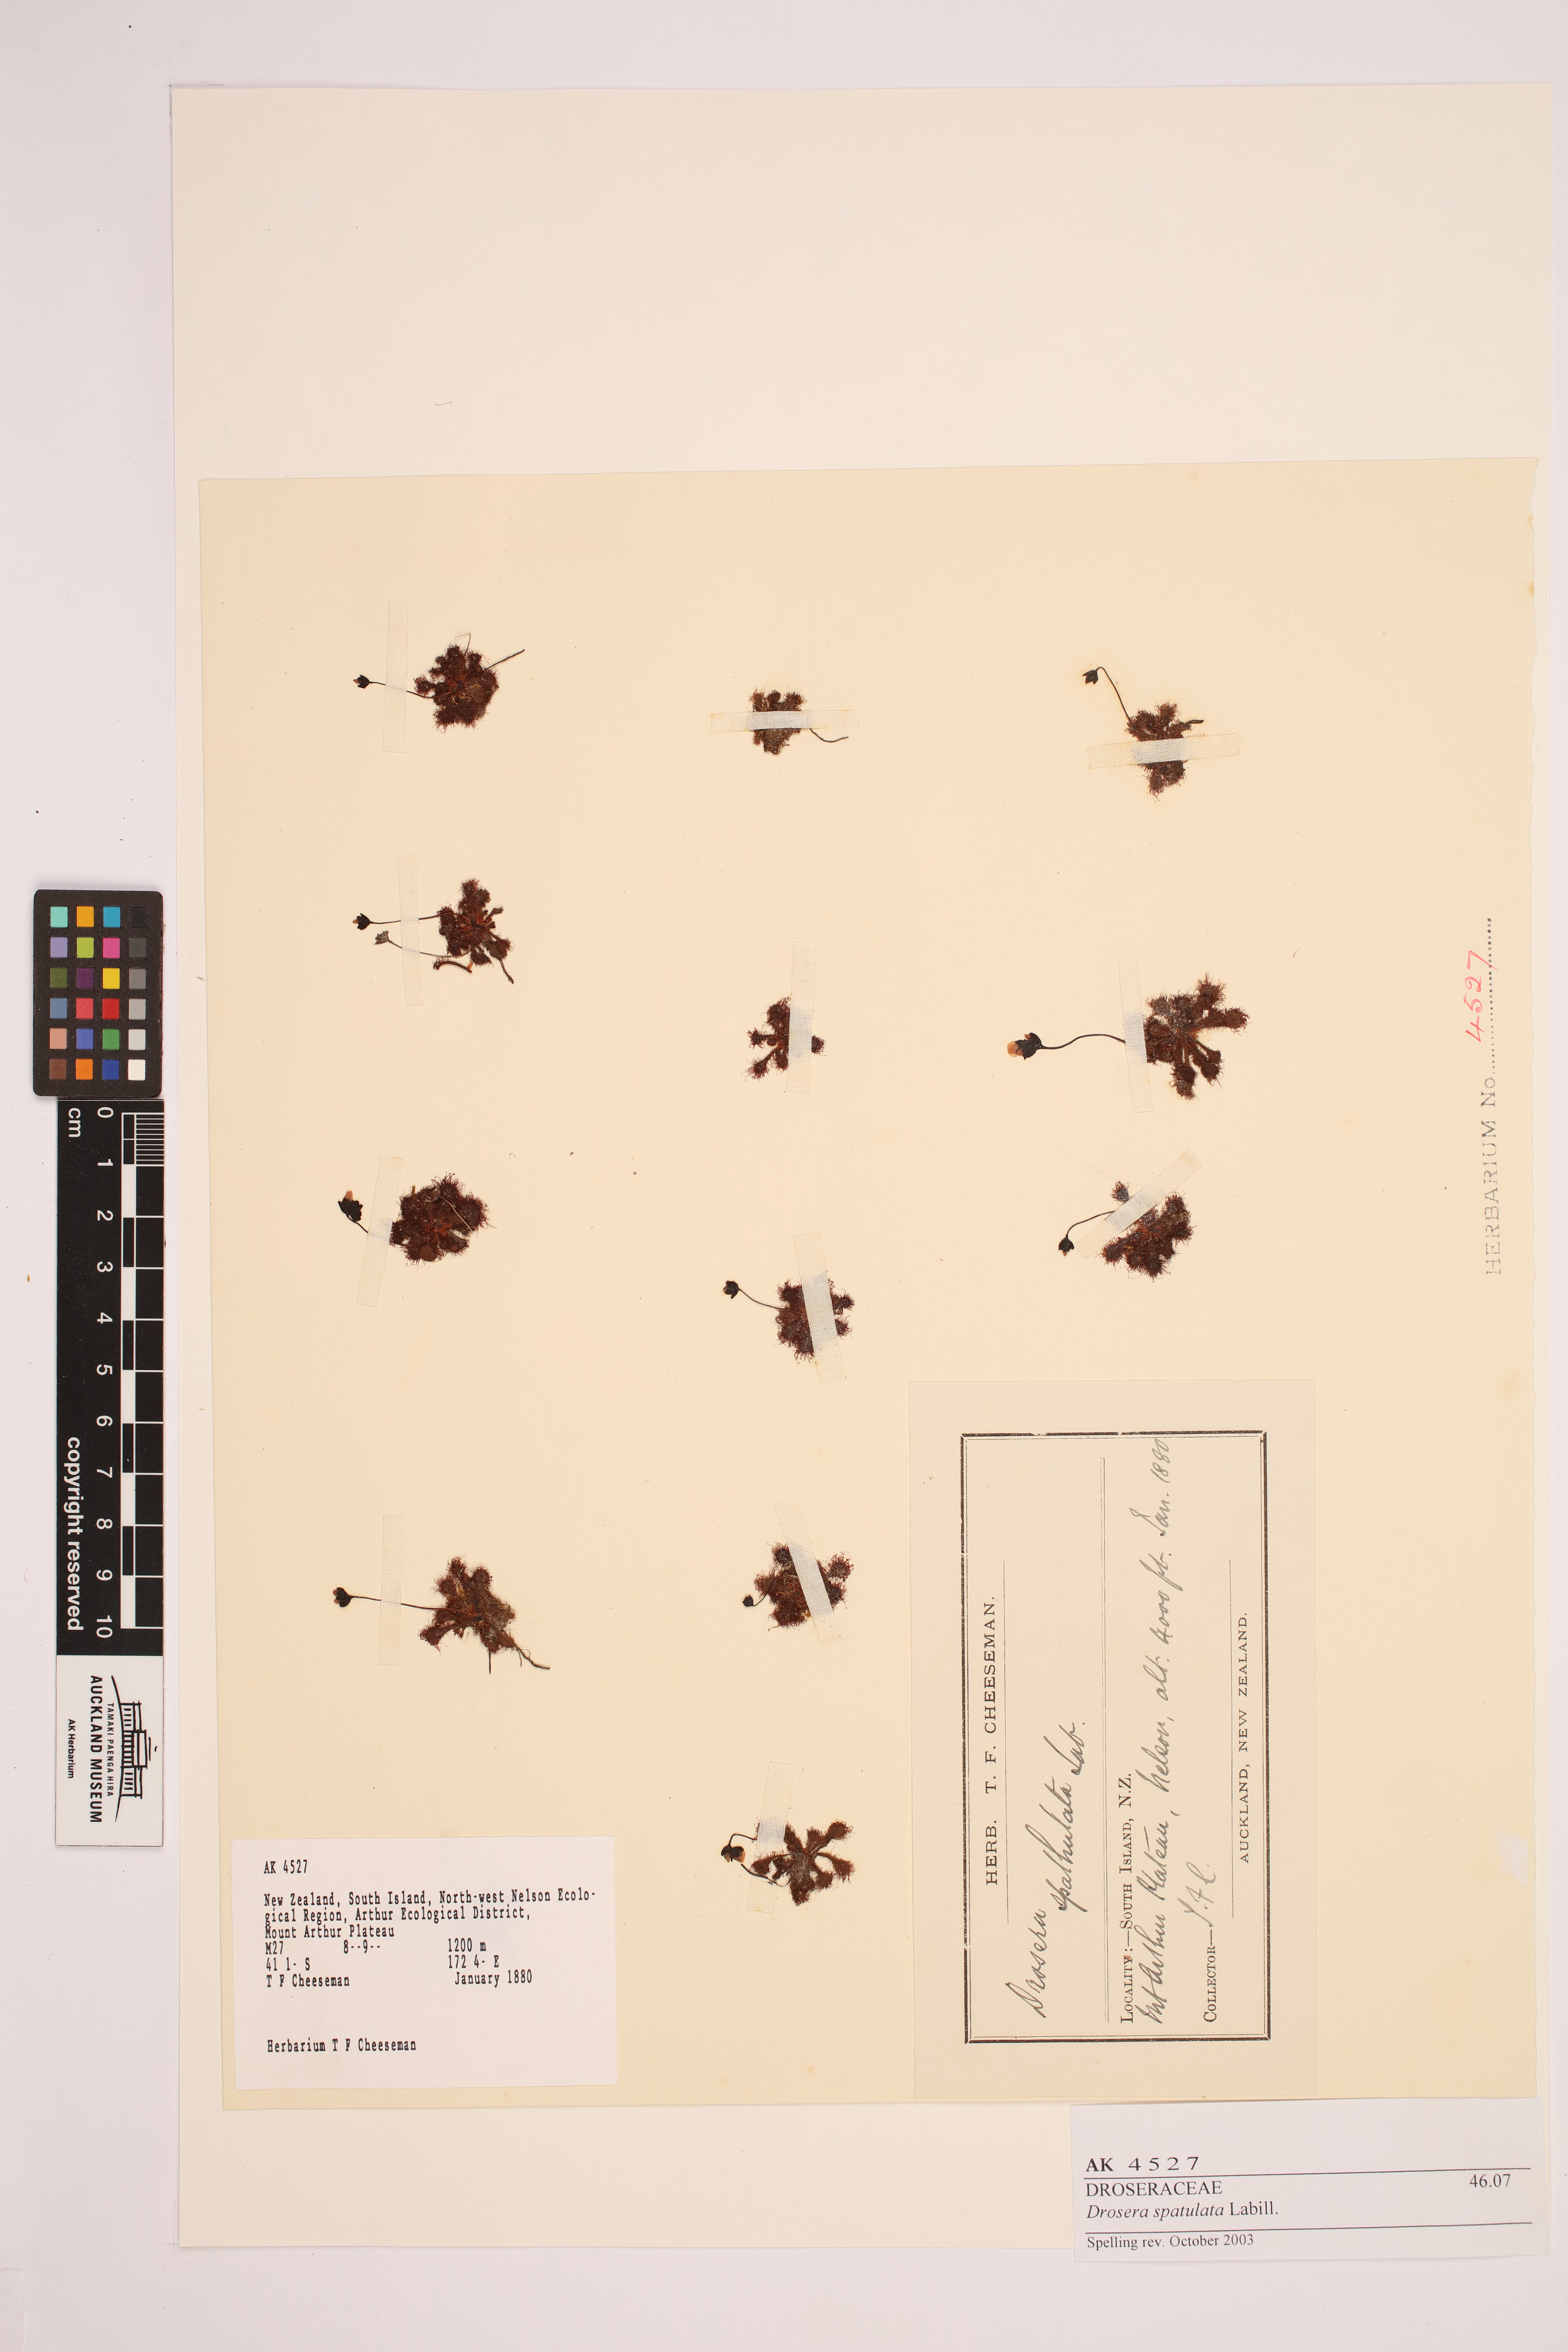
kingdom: Plantae
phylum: Tracheophyta
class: Magnoliopsida
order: Caryophyllales
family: Droseraceae
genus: Drosera
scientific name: Drosera spatulata
